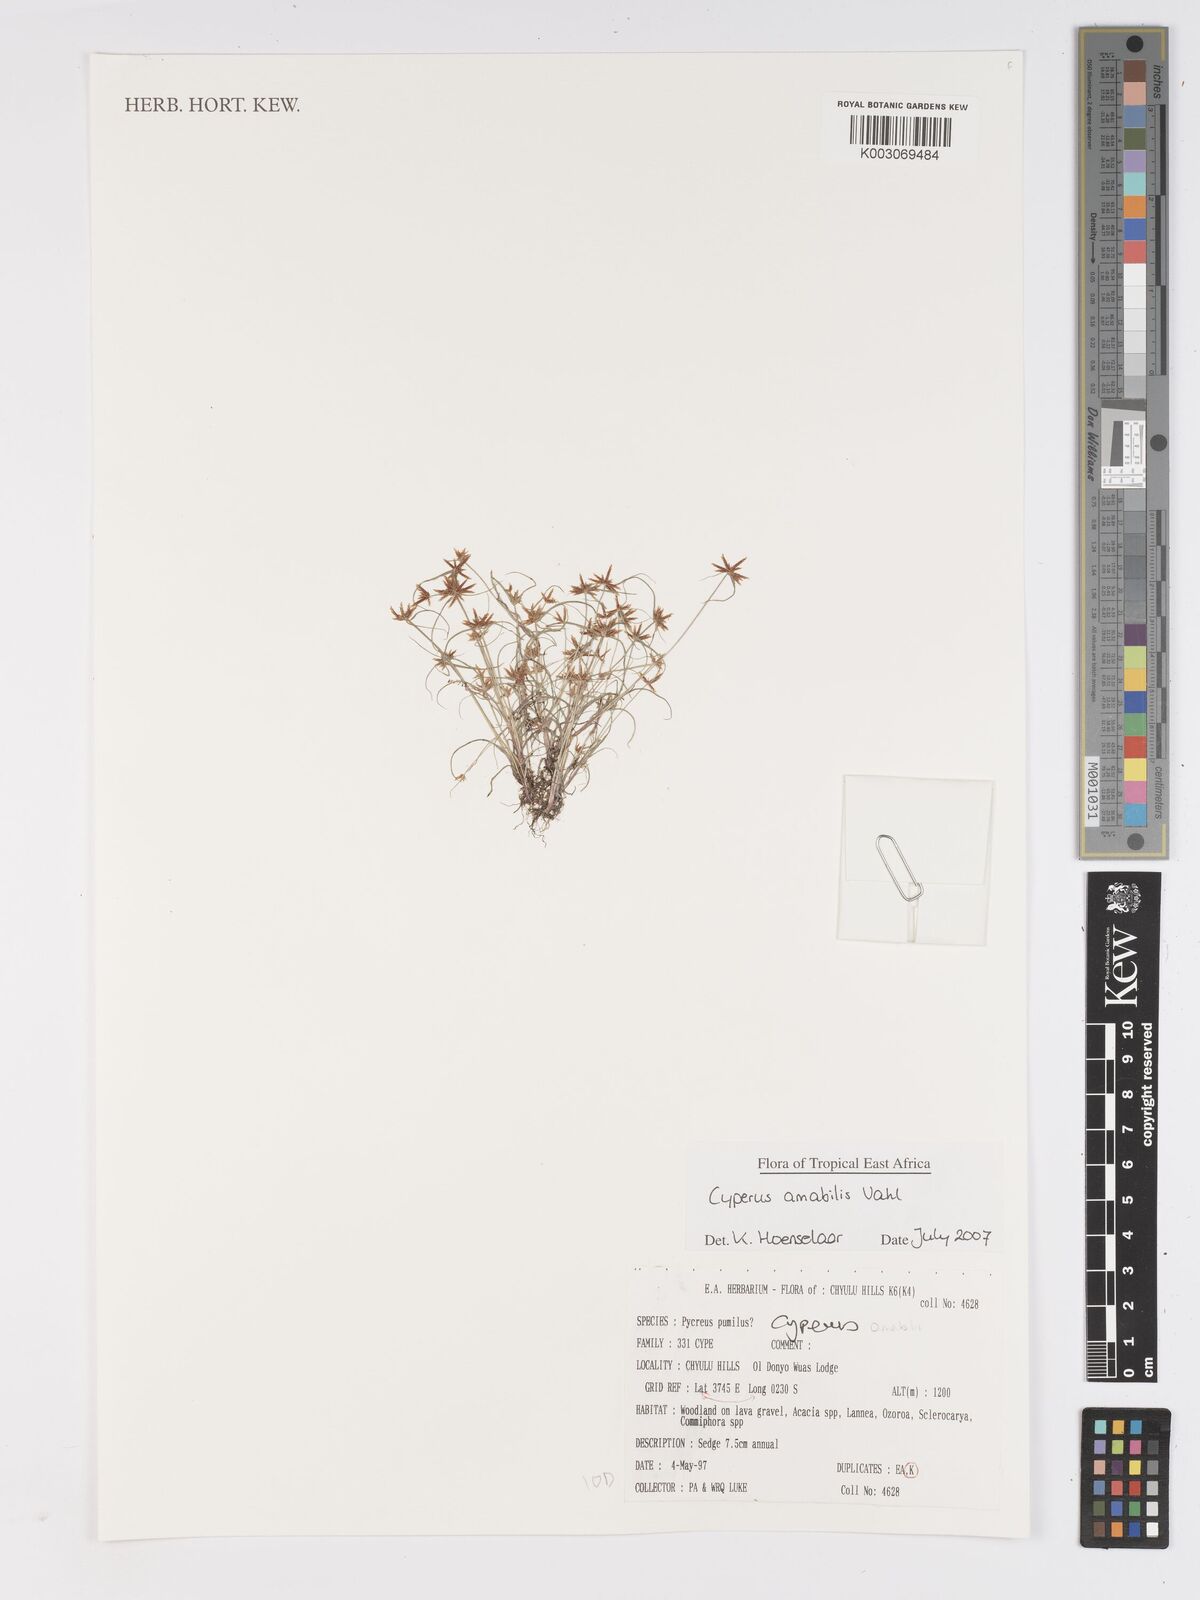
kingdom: Plantae
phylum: Tracheophyta
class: Liliopsida
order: Poales
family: Cyperaceae
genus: Cyperus
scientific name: Cyperus amabilis
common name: Foothill flat sedge
